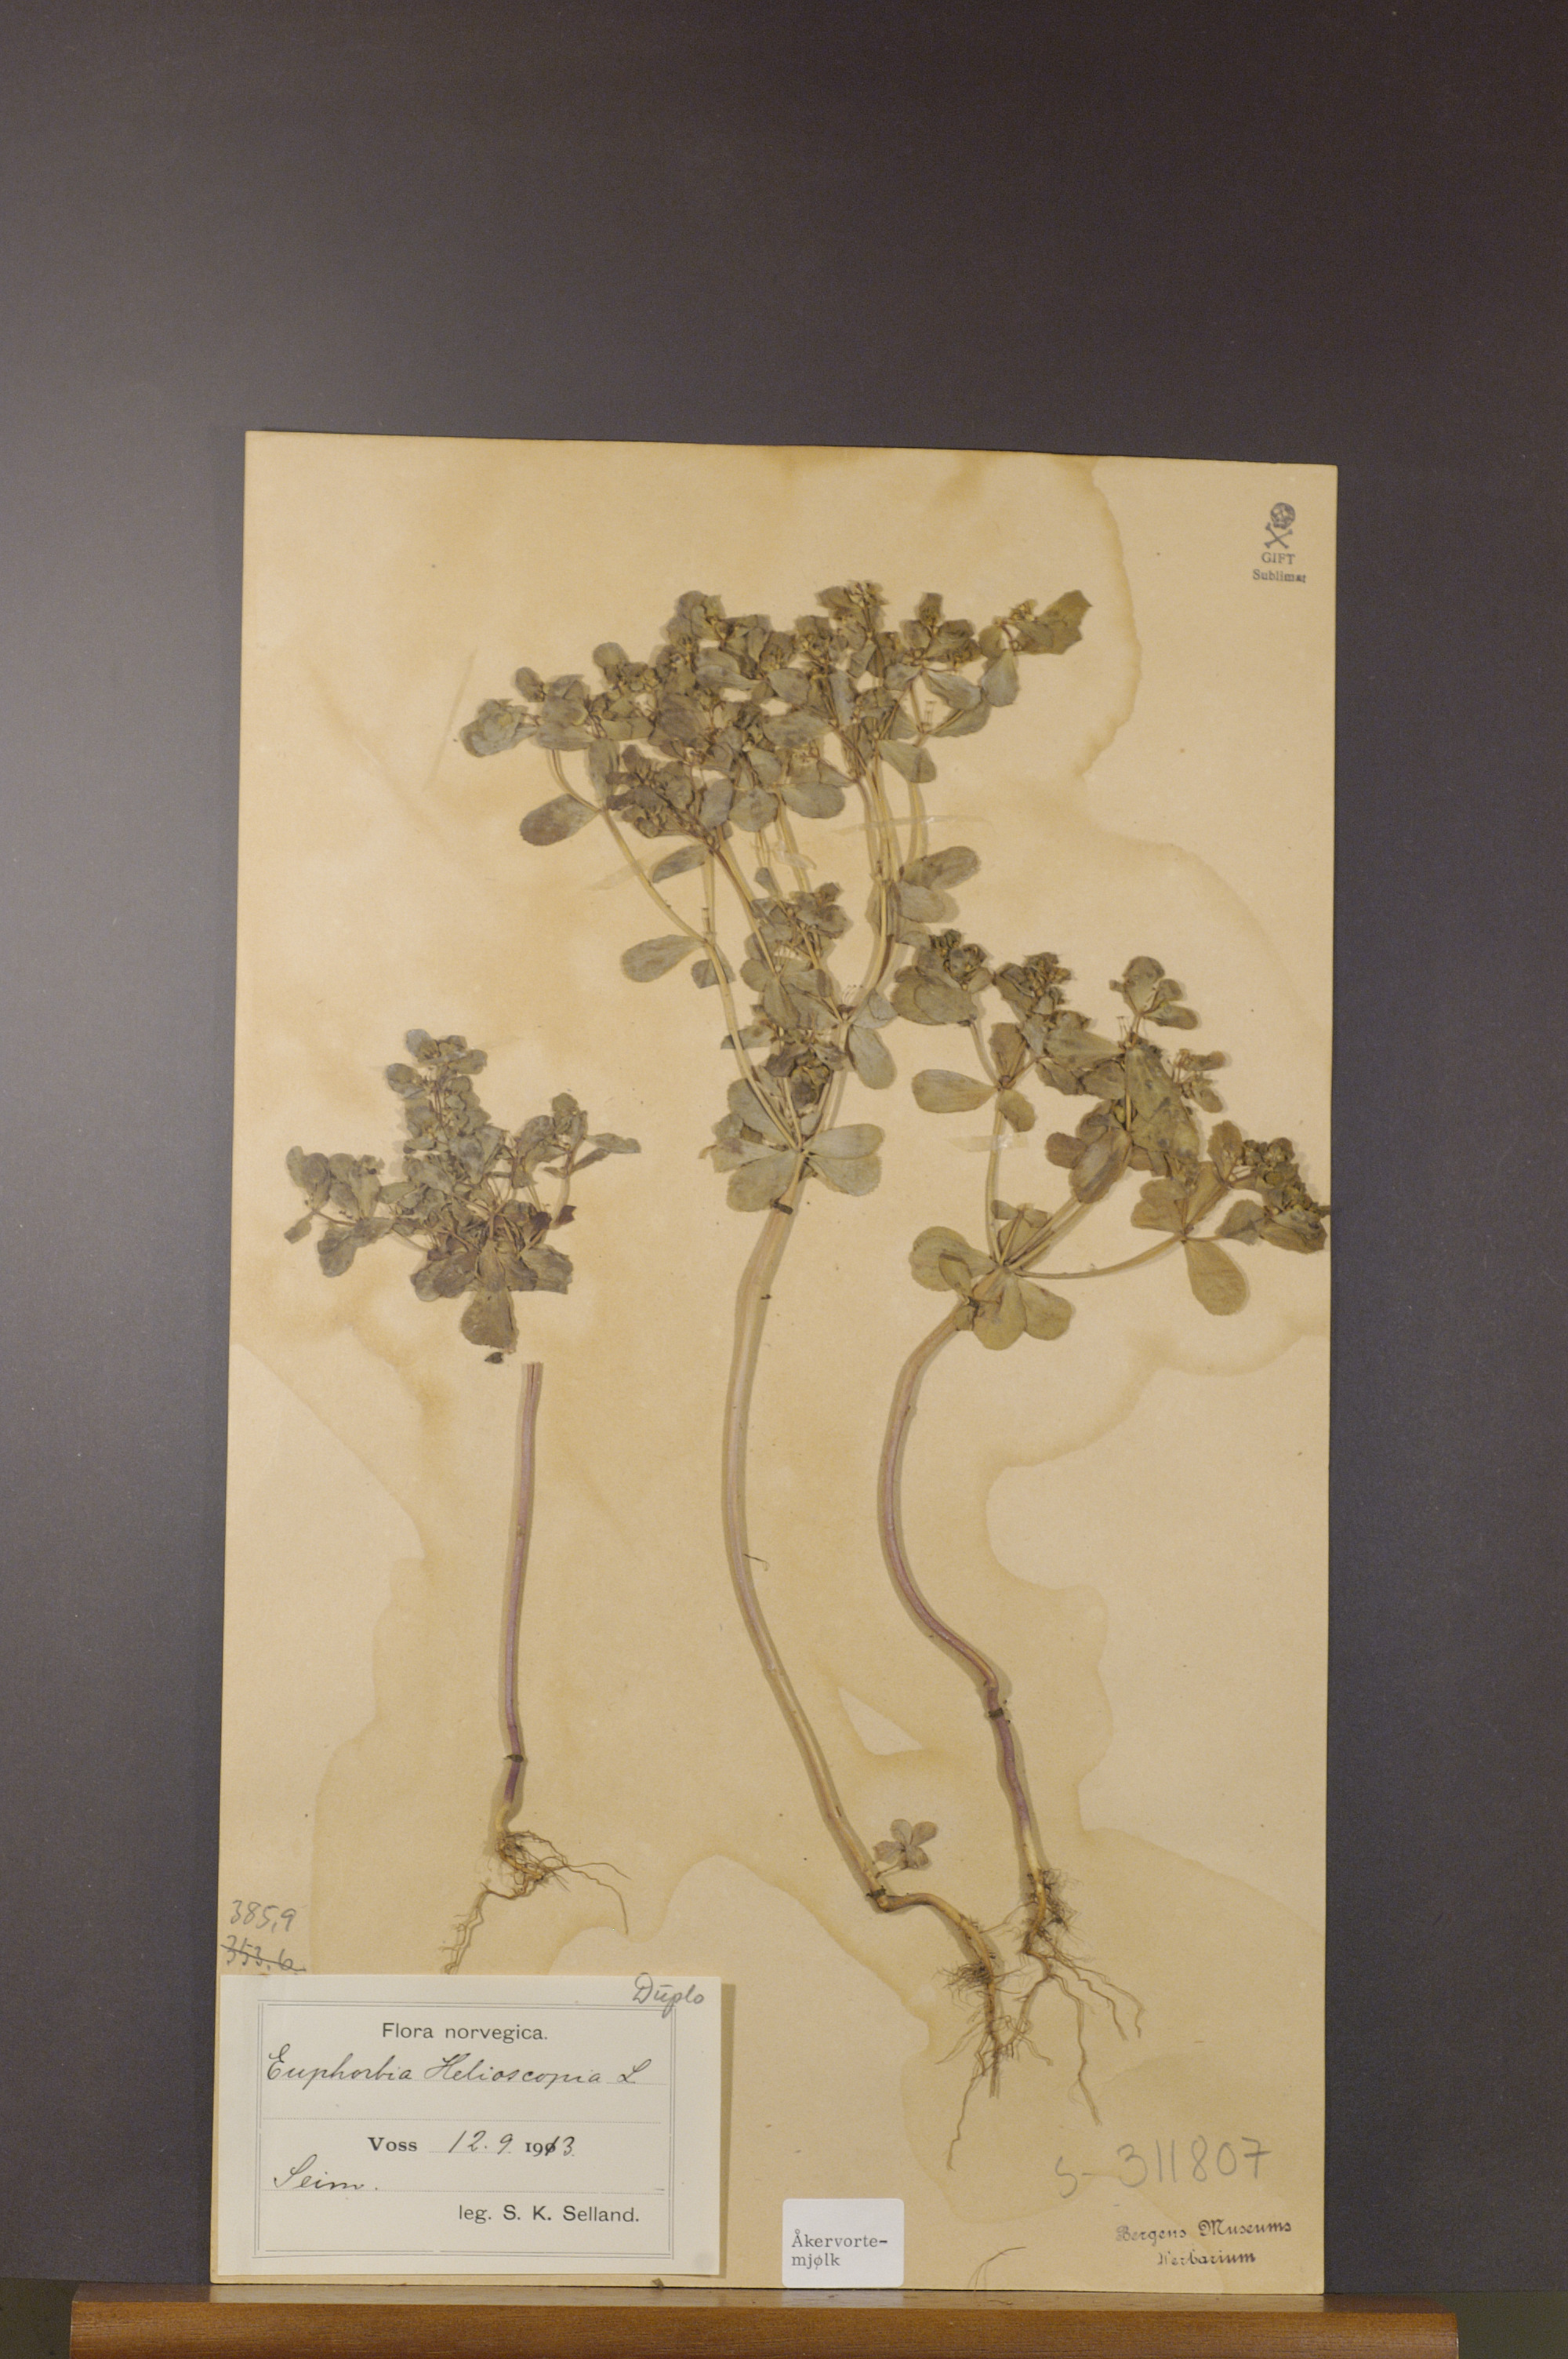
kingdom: Plantae
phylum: Tracheophyta
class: Magnoliopsida
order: Malpighiales
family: Euphorbiaceae
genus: Euphorbia
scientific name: Euphorbia helioscopia
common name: Sun spurge
